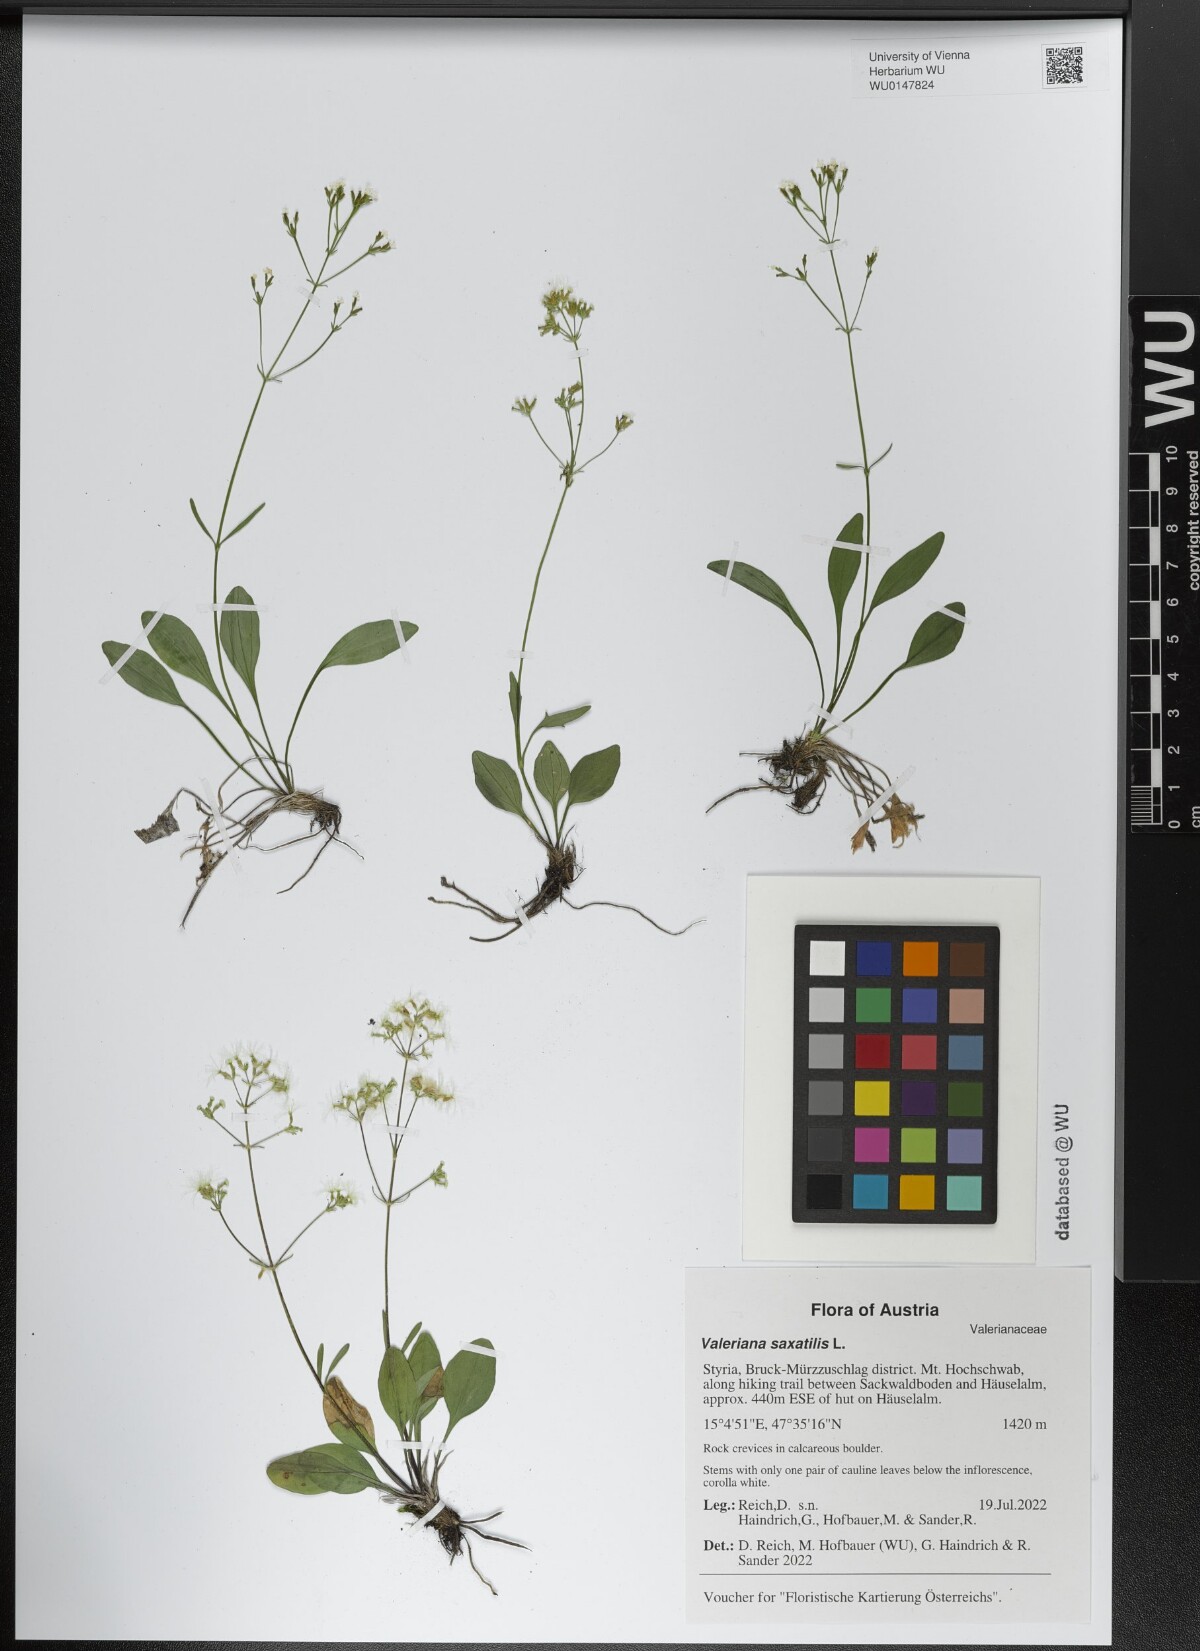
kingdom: Plantae
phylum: Tracheophyta
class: Magnoliopsida
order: Dipsacales
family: Caprifoliaceae
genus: Valeriana
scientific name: Valeriana saxatilis
